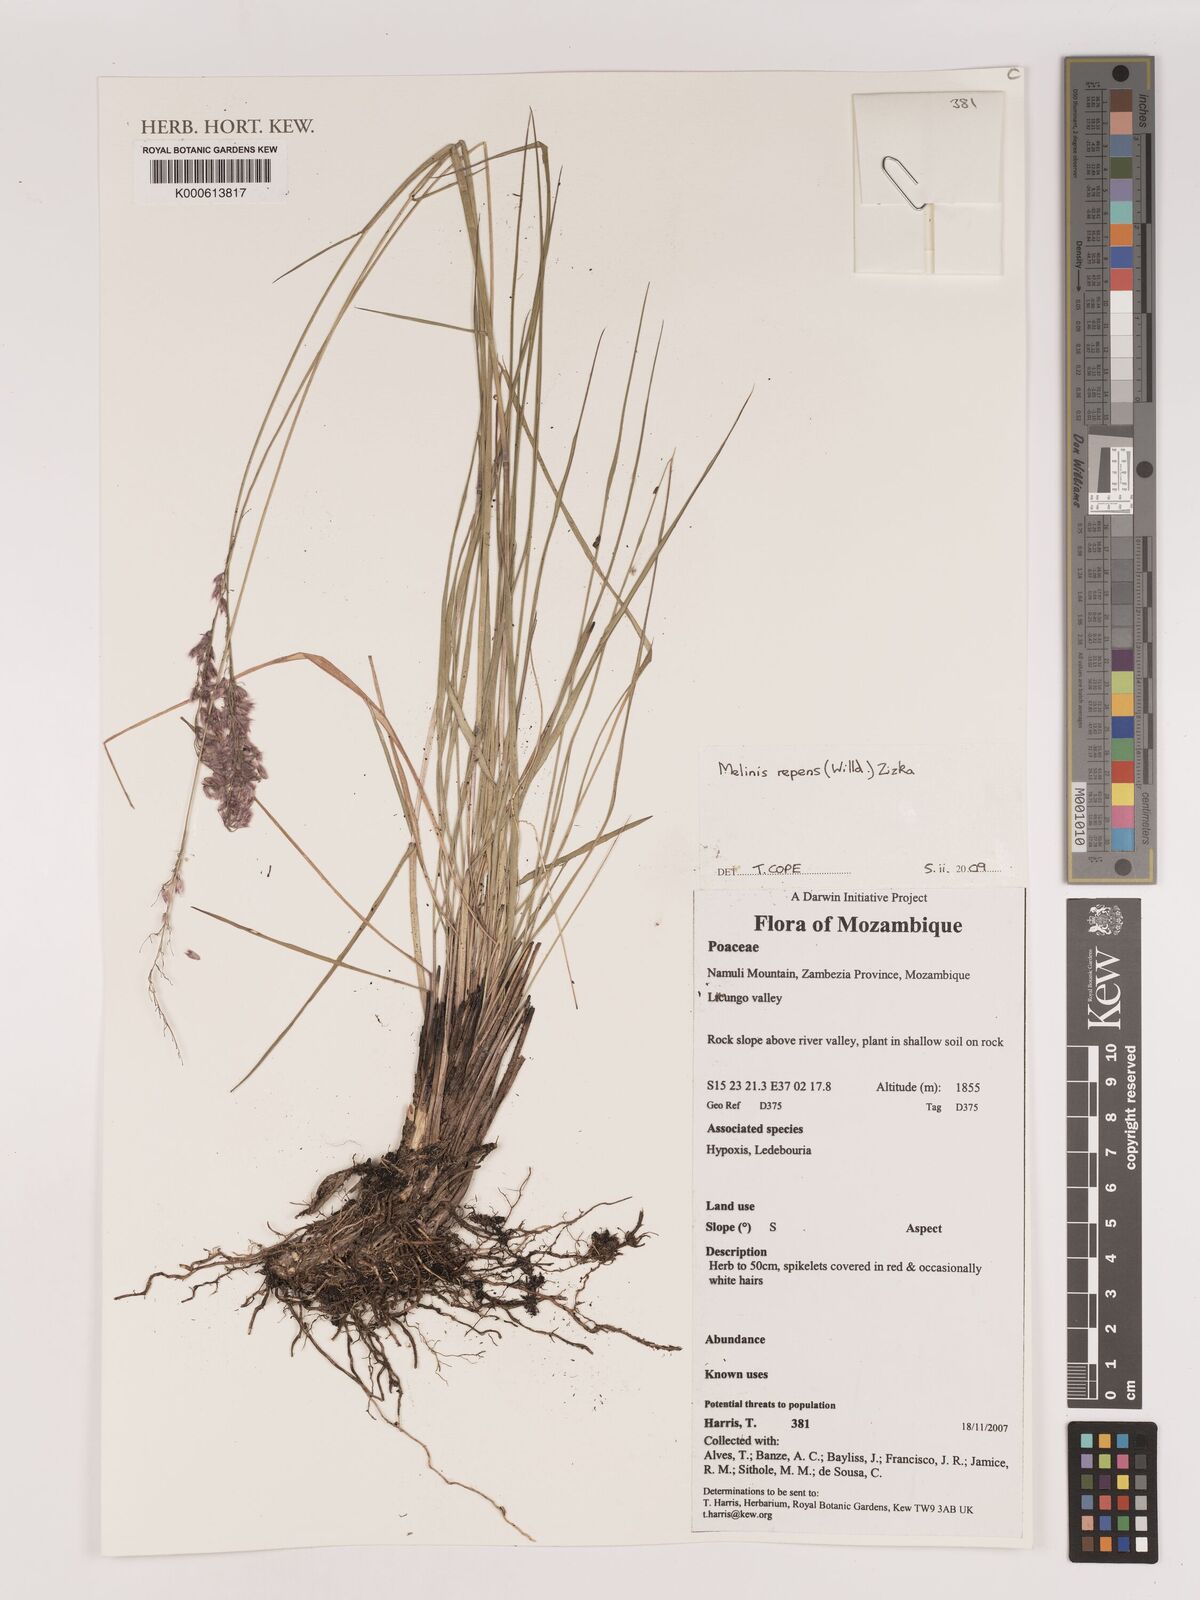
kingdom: Plantae
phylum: Tracheophyta
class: Liliopsida
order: Poales
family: Poaceae
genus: Melinis
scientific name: Melinis repens
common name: Rose natal grass
